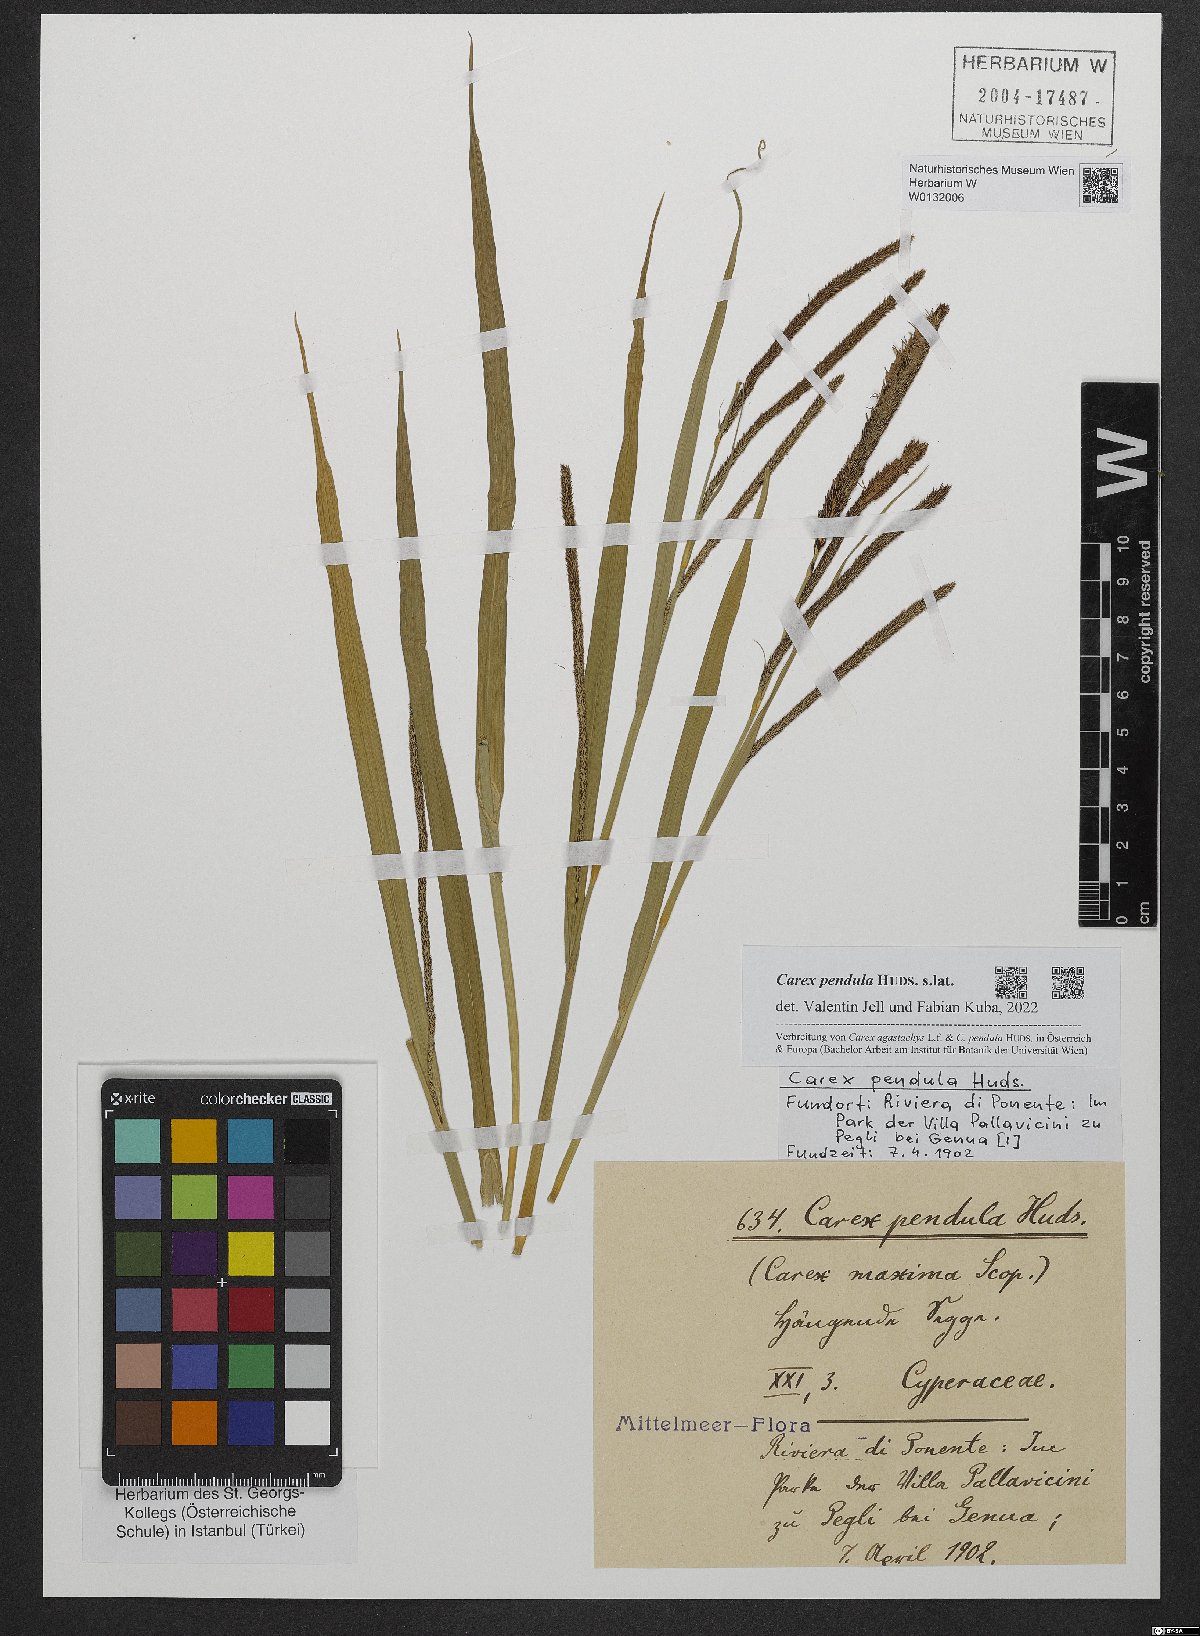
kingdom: Plantae
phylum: Tracheophyta
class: Liliopsida
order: Poales
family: Cyperaceae
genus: Carex
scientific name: Carex pendula
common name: Pendulous sedge
